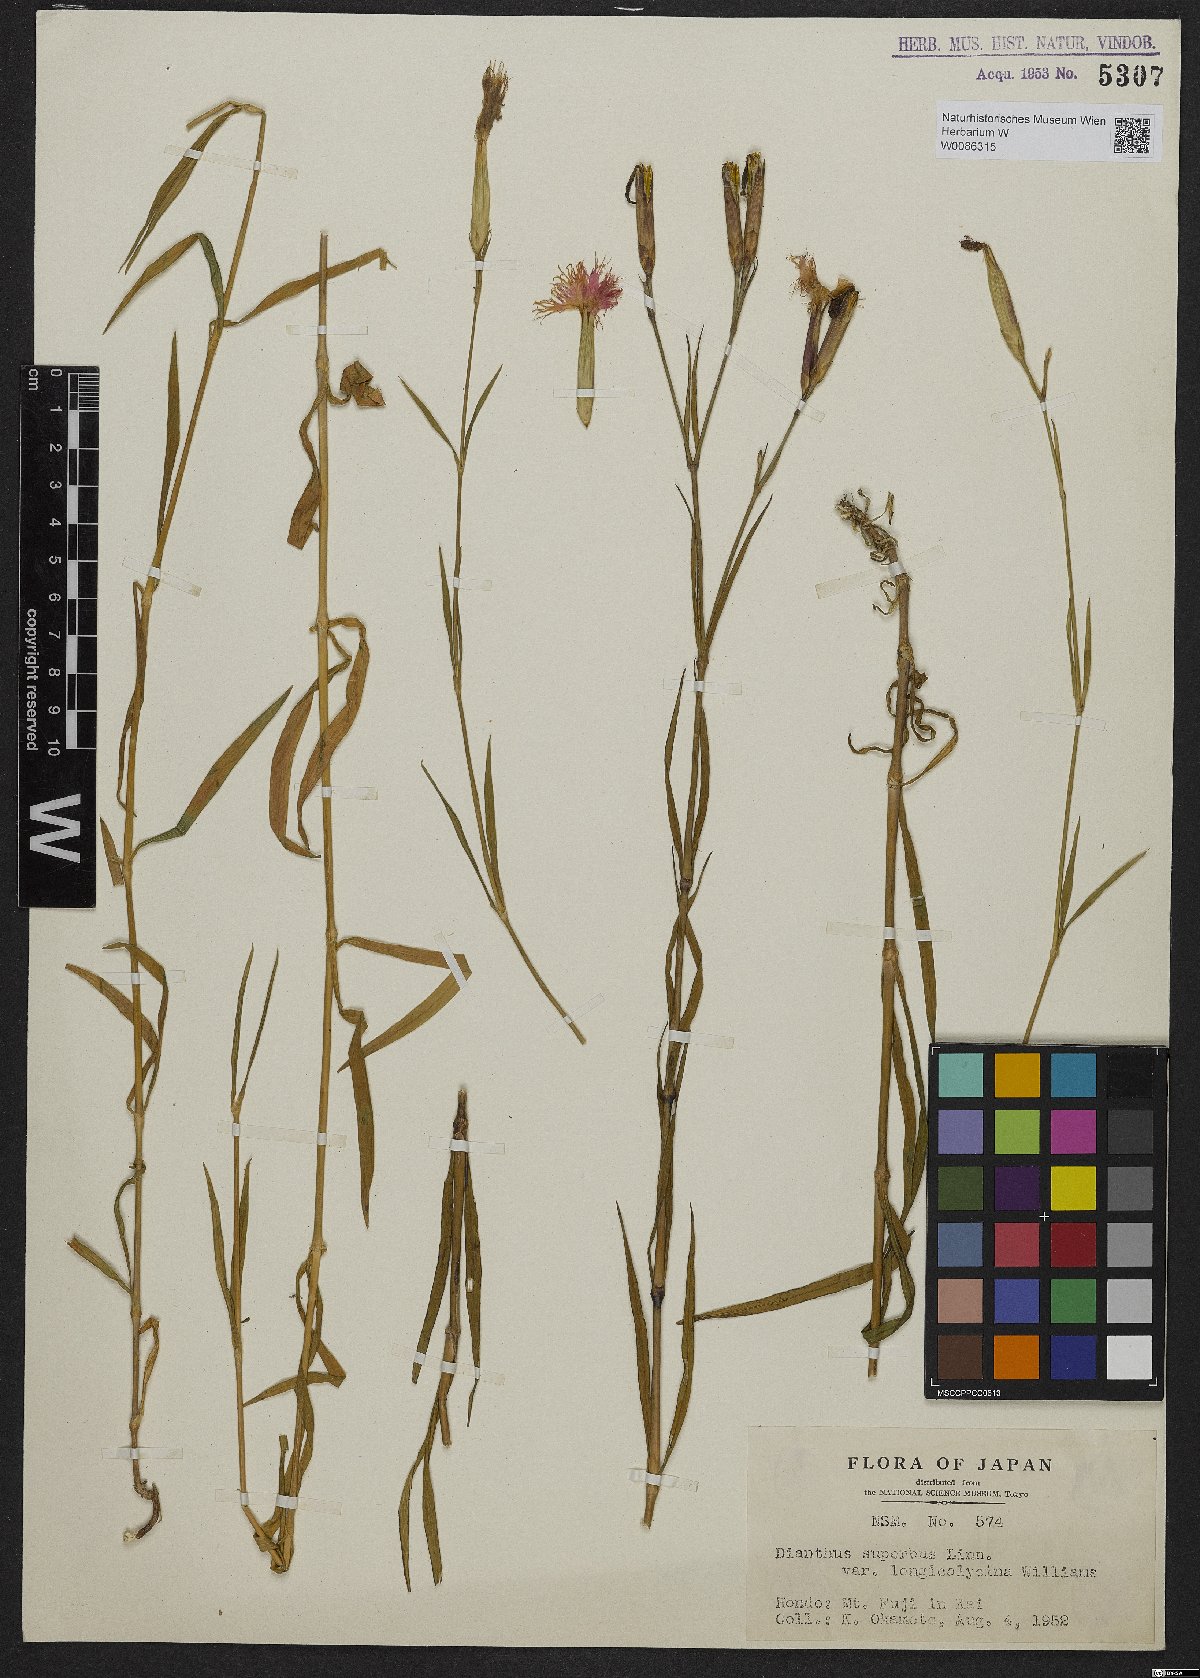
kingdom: Plantae
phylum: Tracheophyta
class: Magnoliopsida
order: Caryophyllales
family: Caryophyllaceae
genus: Dianthus
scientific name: Dianthus superbus
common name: Fringed pink
